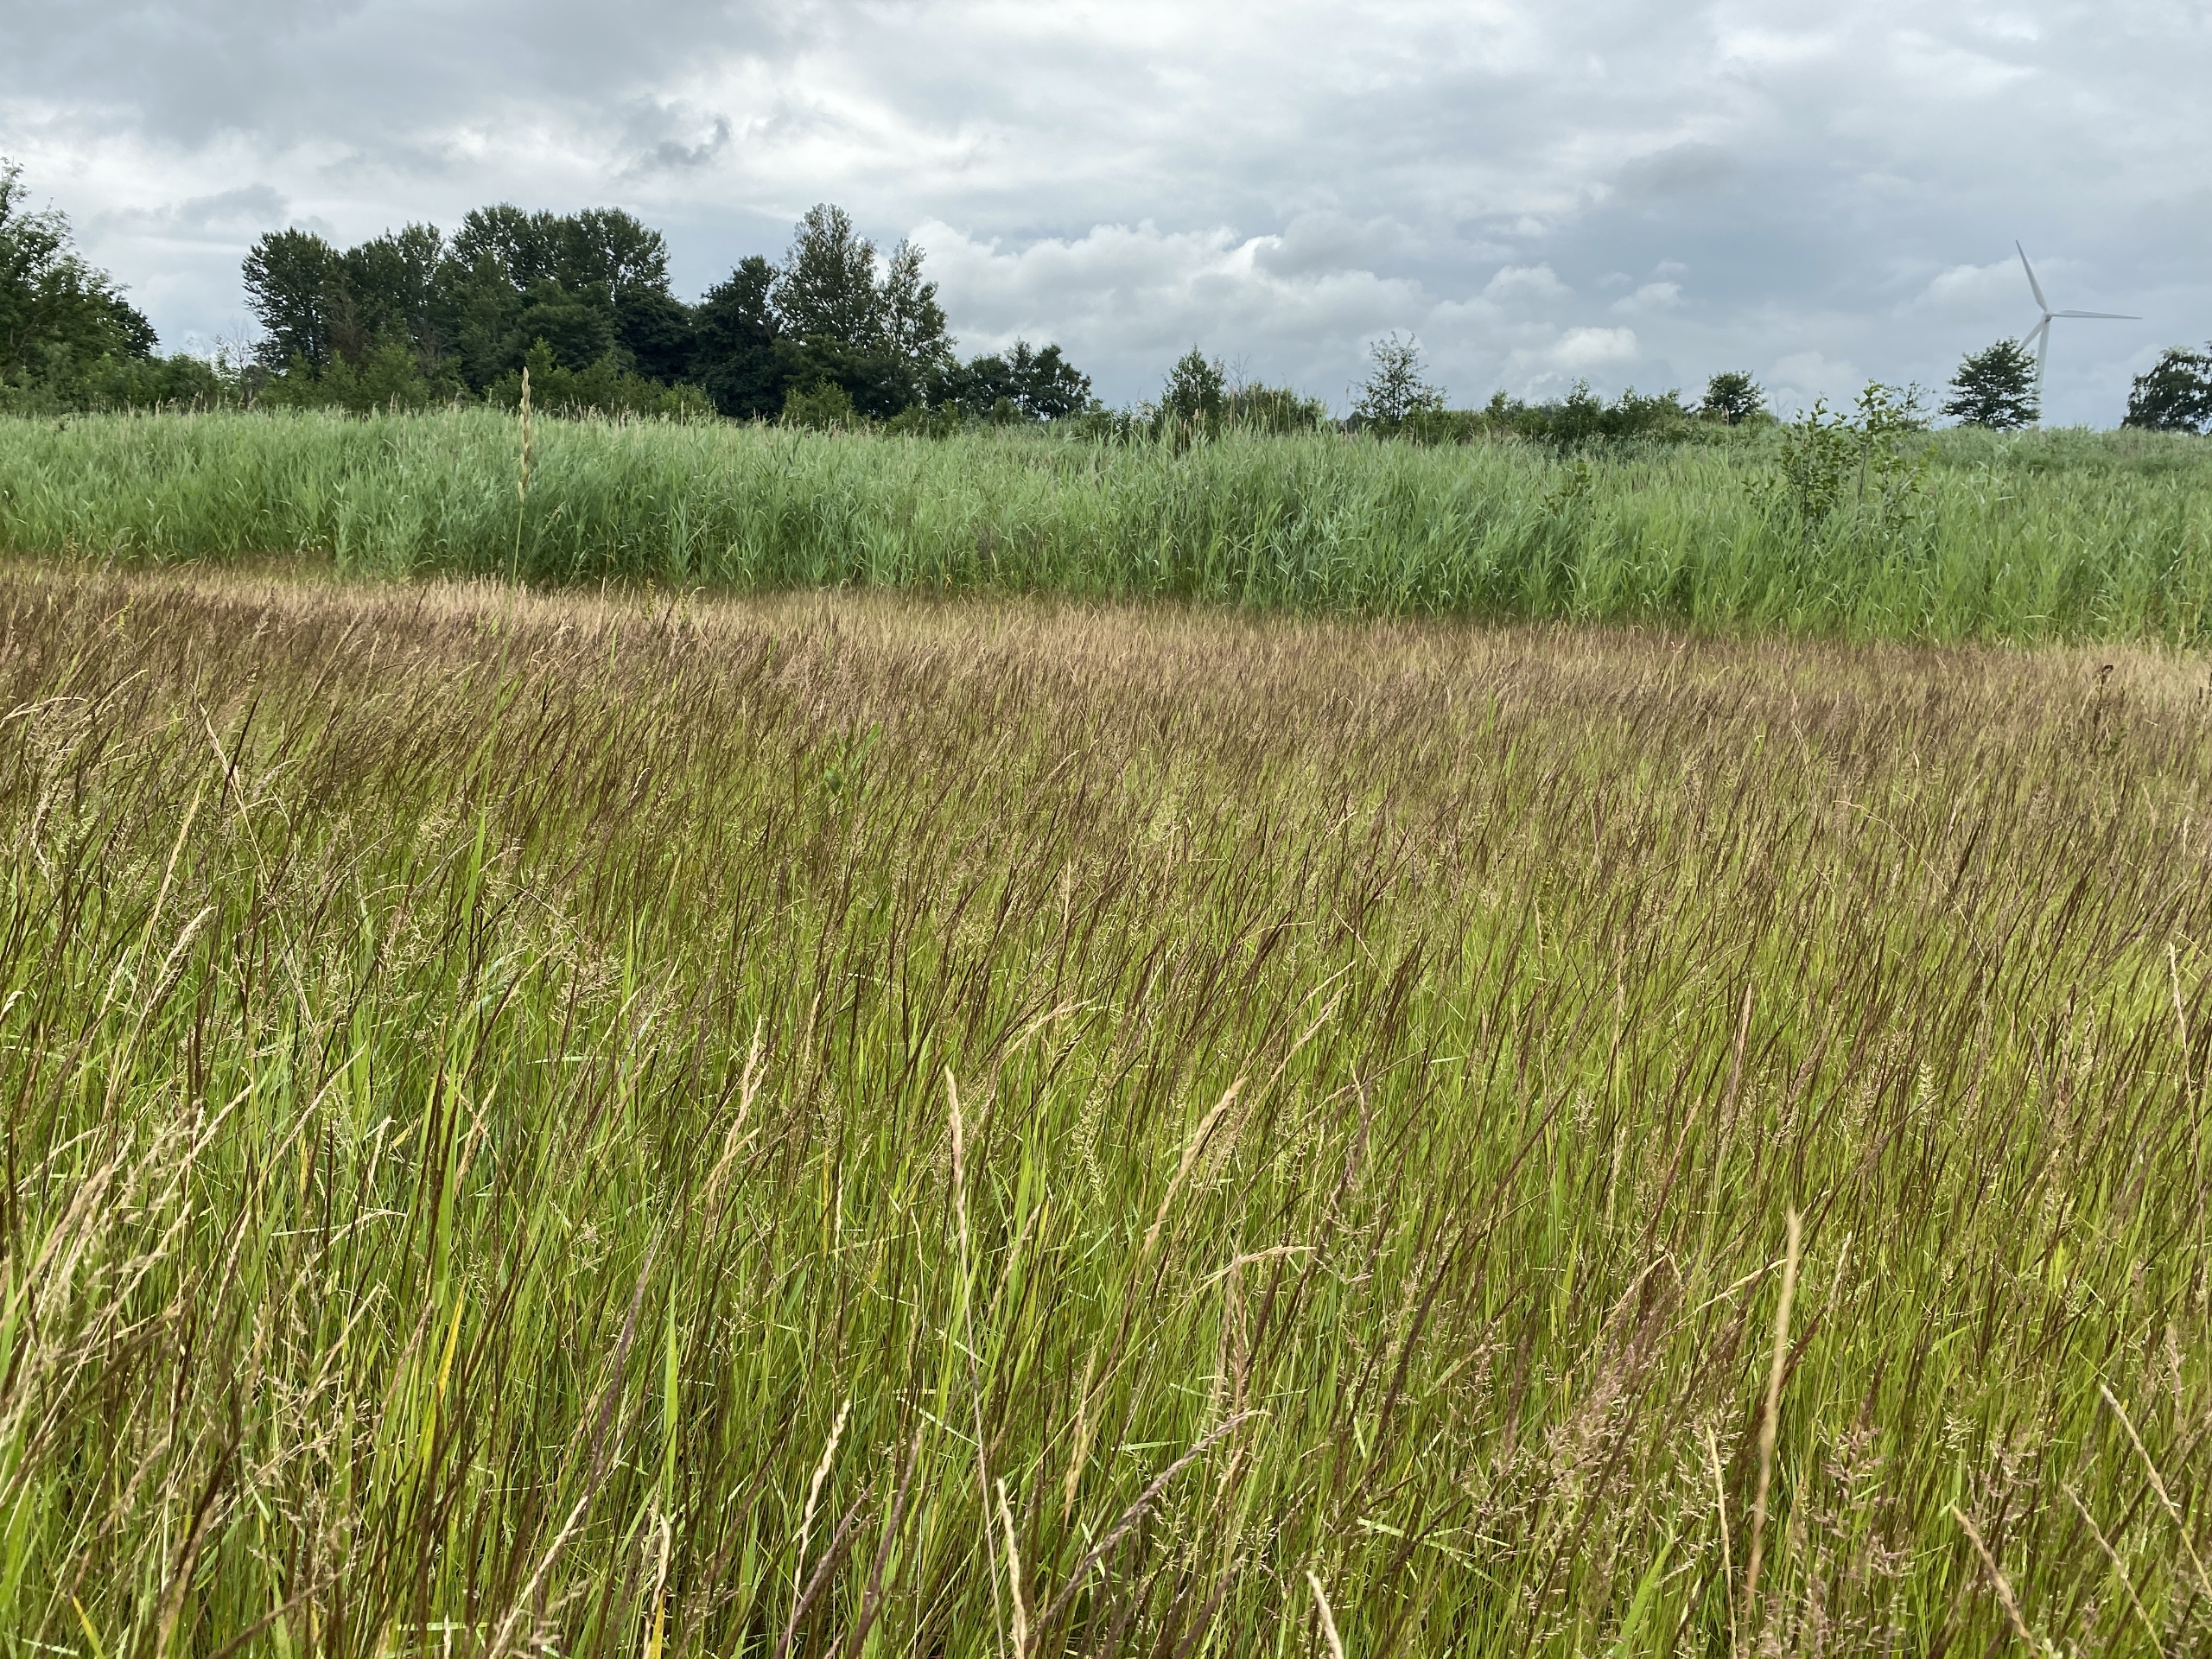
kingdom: Plantae
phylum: Tracheophyta
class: Liliopsida
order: Poales
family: Poaceae
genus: Agrostis
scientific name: Agrostis stolonifera
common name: Kryb-hvene
